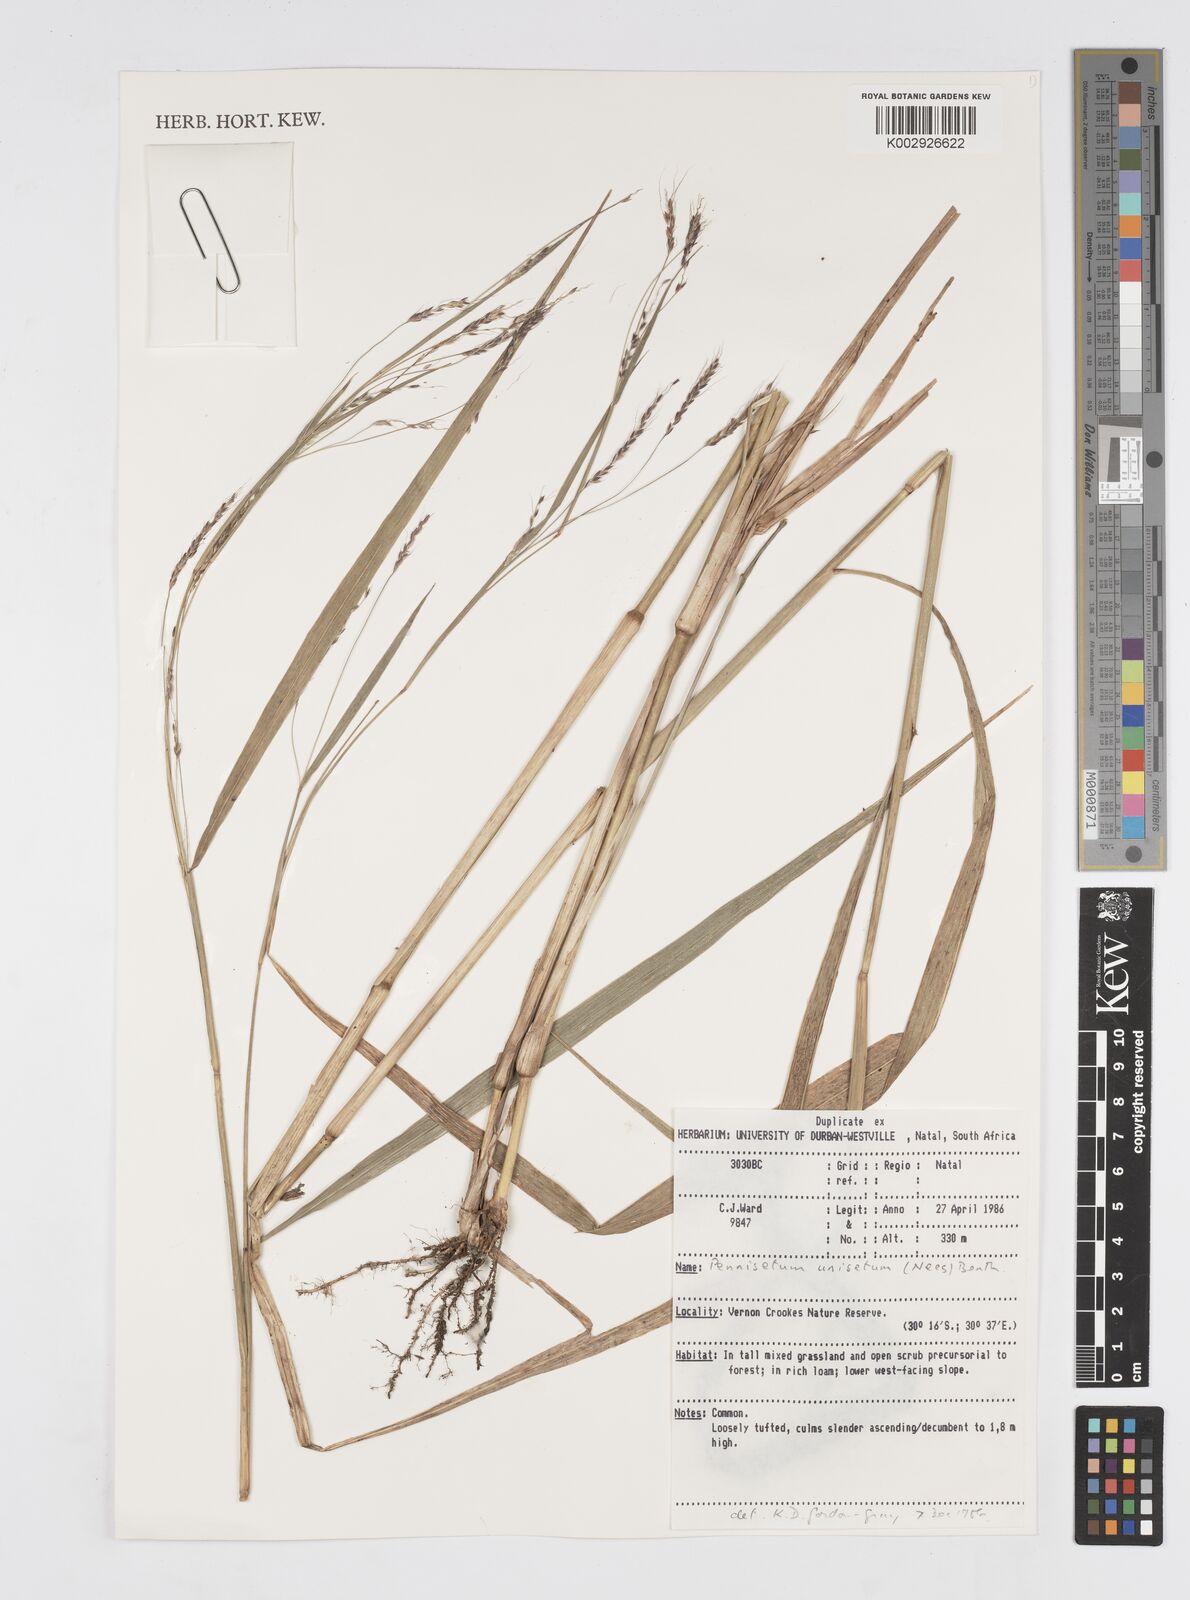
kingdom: Plantae
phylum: Tracheophyta
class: Liliopsida
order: Poales
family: Poaceae
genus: Cenchrus
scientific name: Cenchrus unisetus
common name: Natal grass
